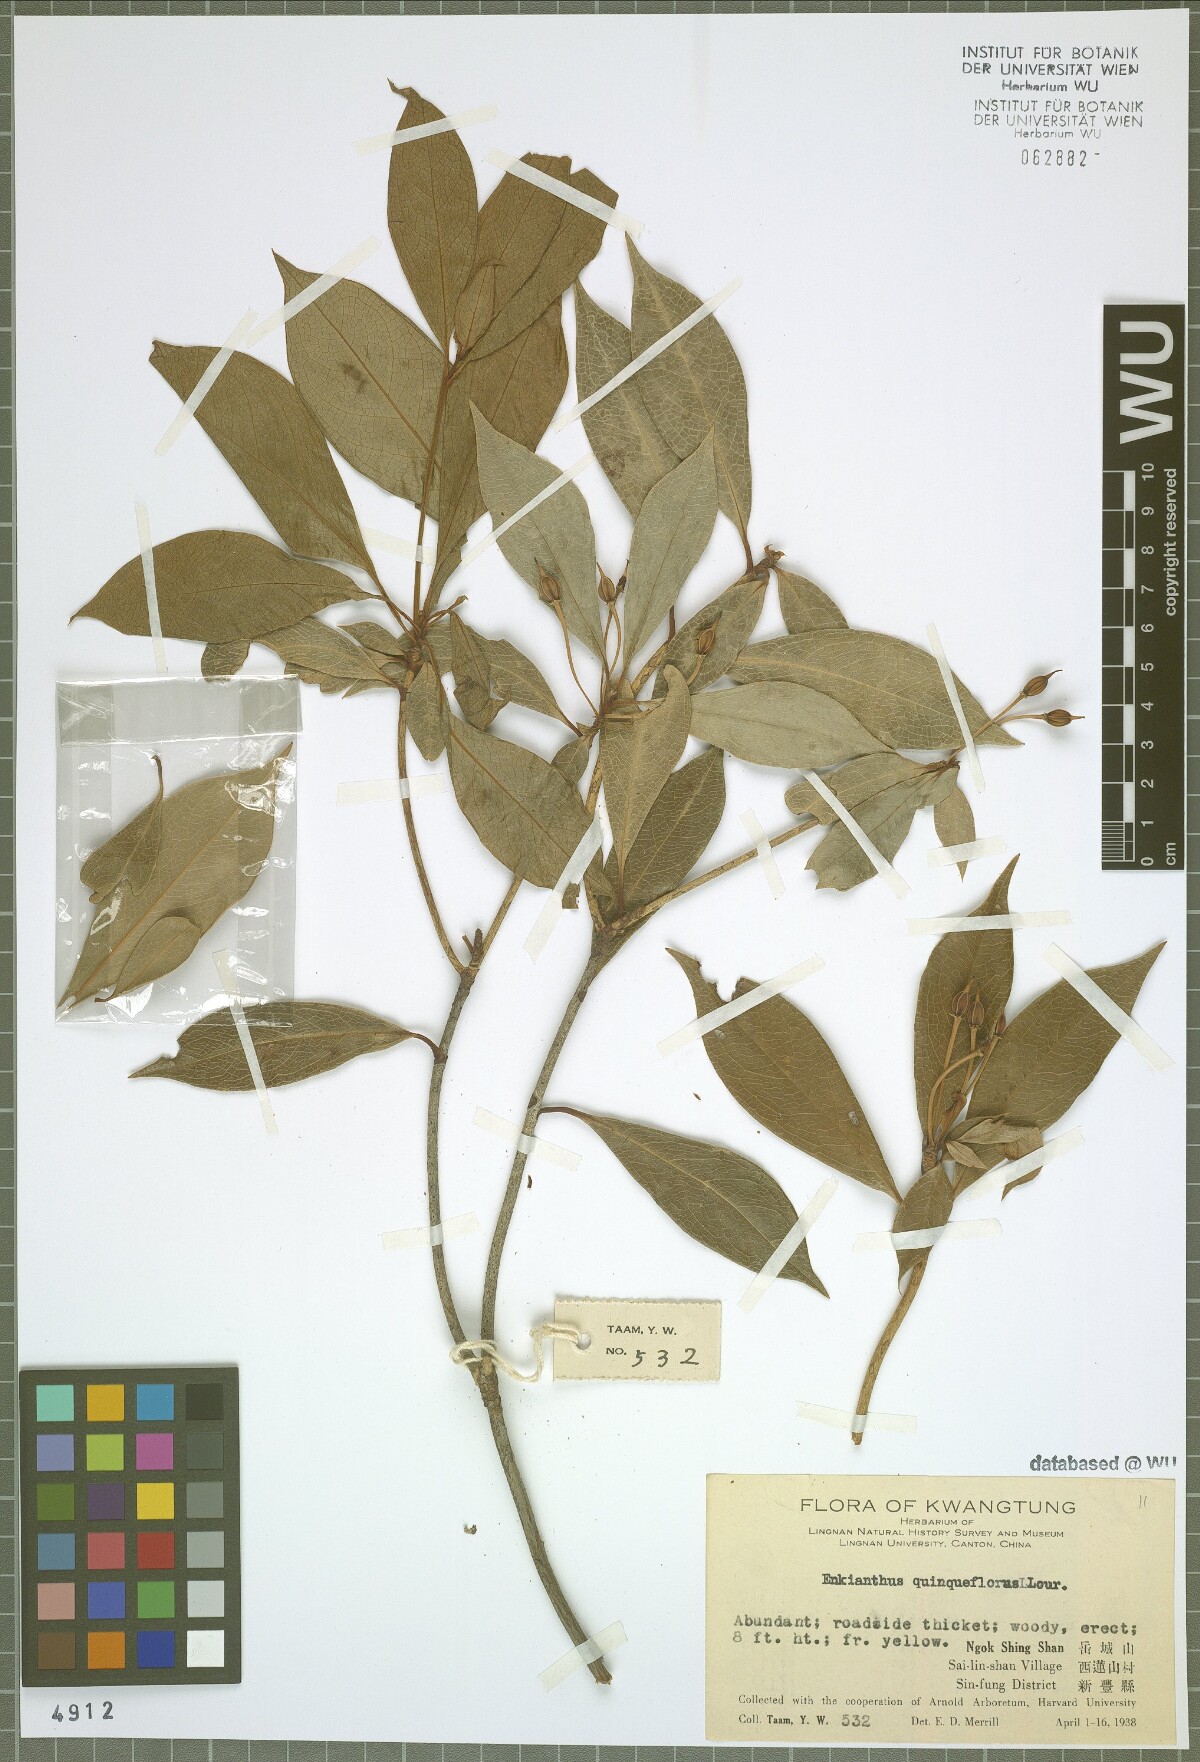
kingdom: Plantae
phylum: Tracheophyta
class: Magnoliopsida
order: Ericales
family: Ericaceae
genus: Enkianthus
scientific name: Enkianthus quinqueflorus
